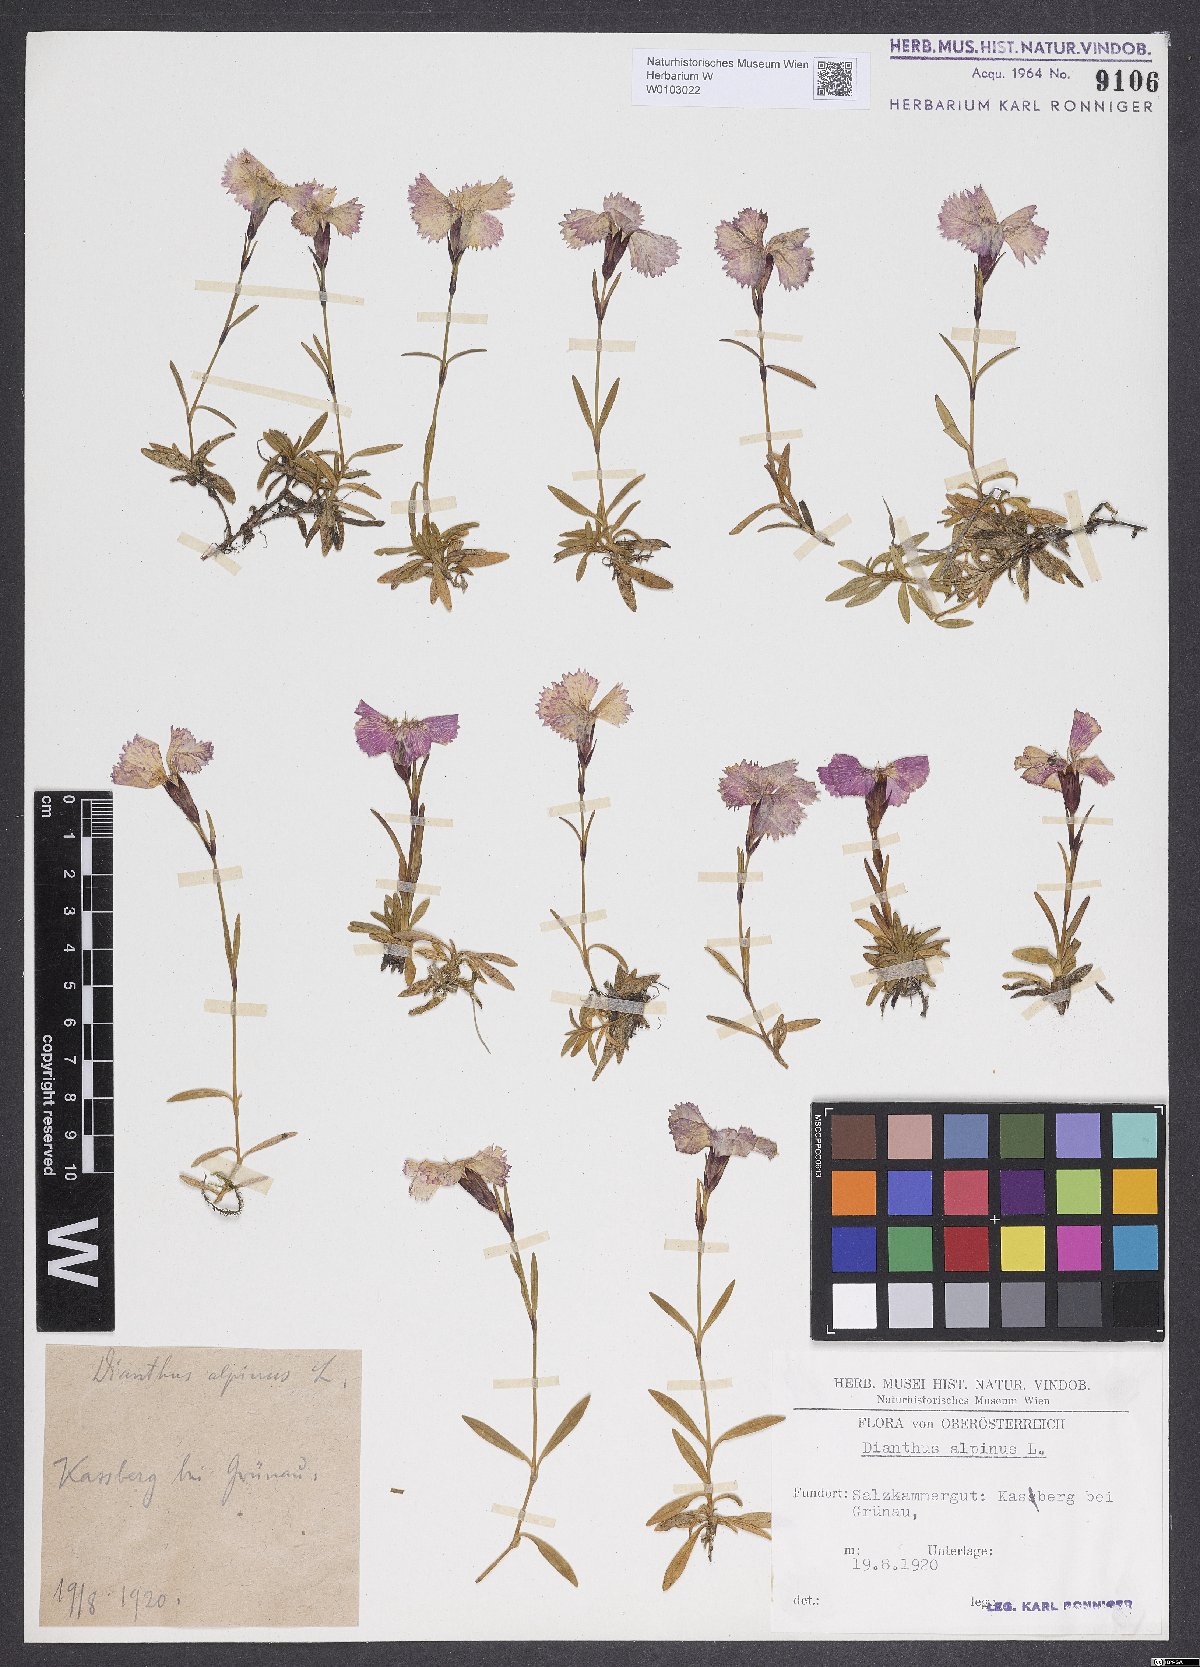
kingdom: Plantae
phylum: Tracheophyta
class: Magnoliopsida
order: Caryophyllales
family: Caryophyllaceae
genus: Dianthus
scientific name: Dianthus alpinus
